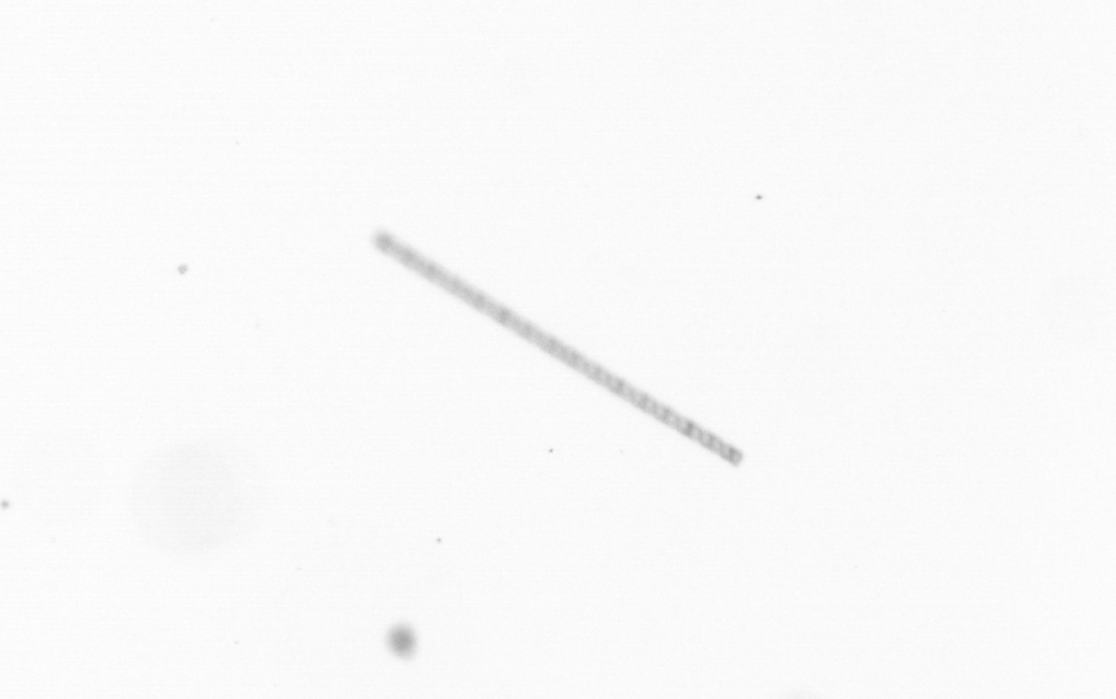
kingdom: Chromista
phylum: Ochrophyta
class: Bacillariophyceae
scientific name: Bacillariophyceae
